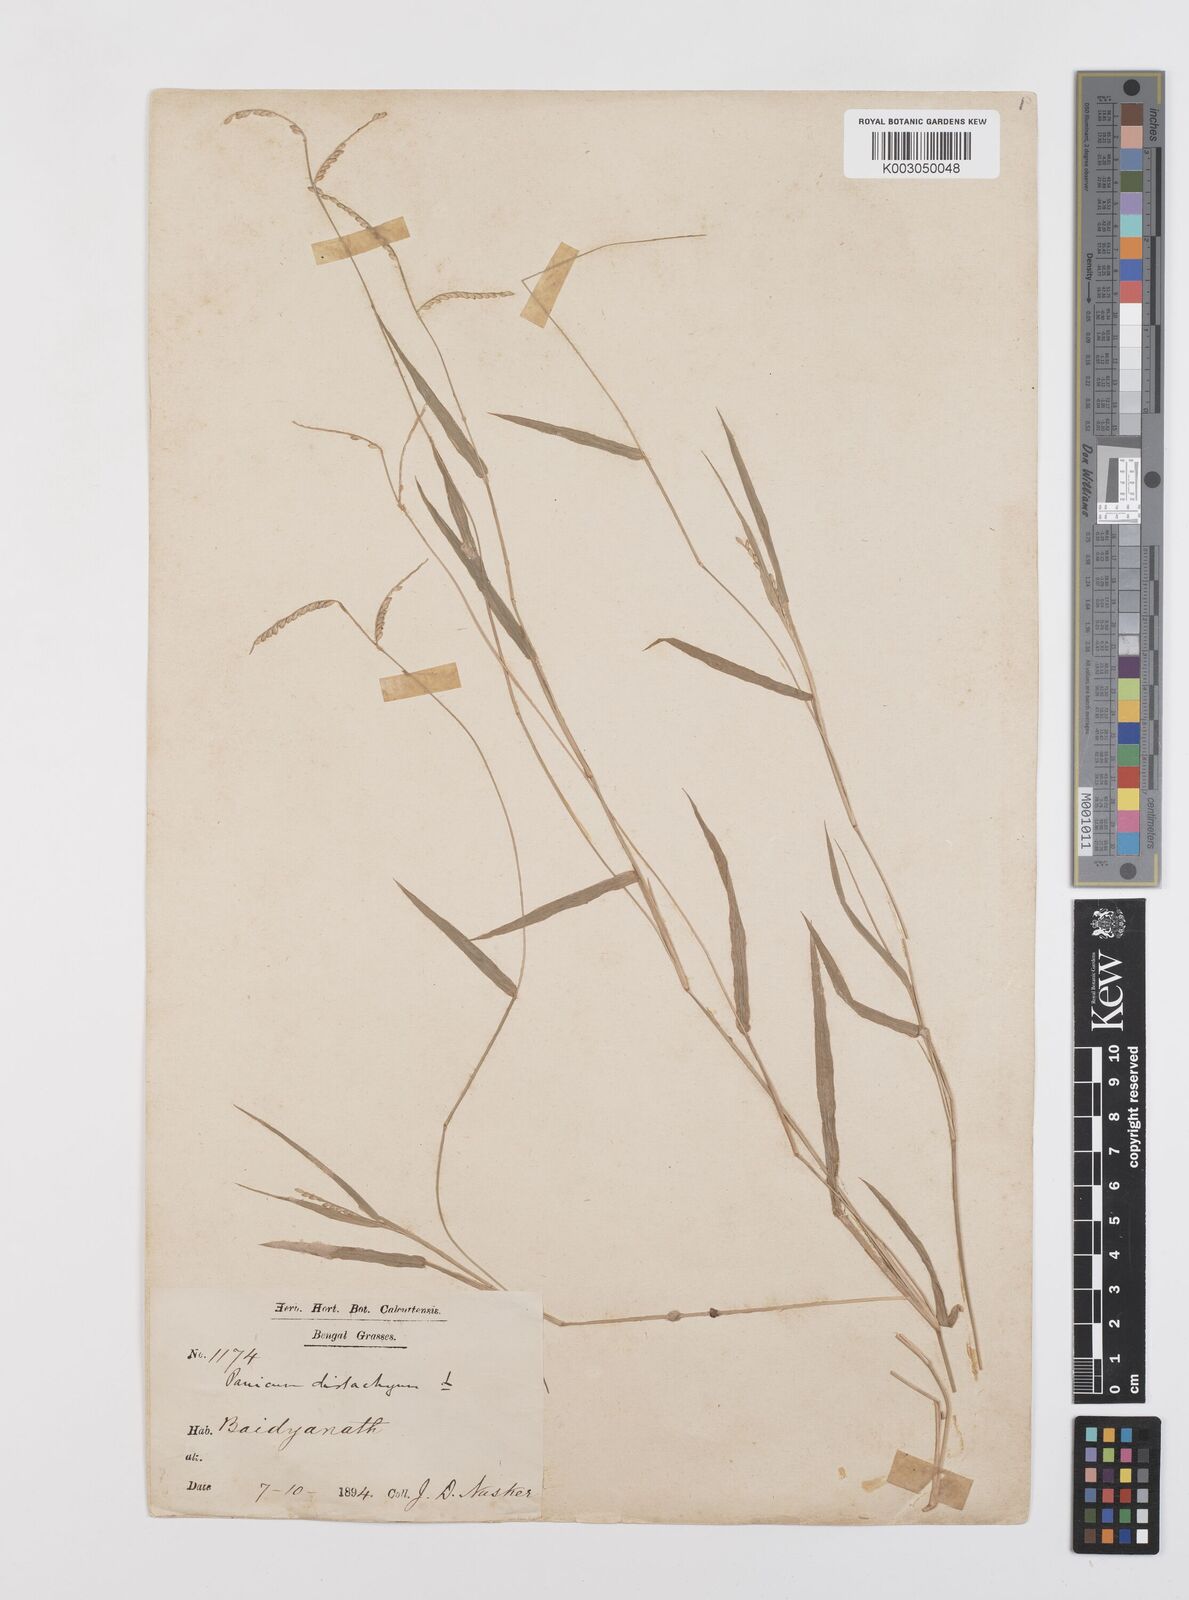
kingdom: Plantae
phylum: Tracheophyta
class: Liliopsida
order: Poales
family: Poaceae
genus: Urochloa
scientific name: Urochloa distachyos
